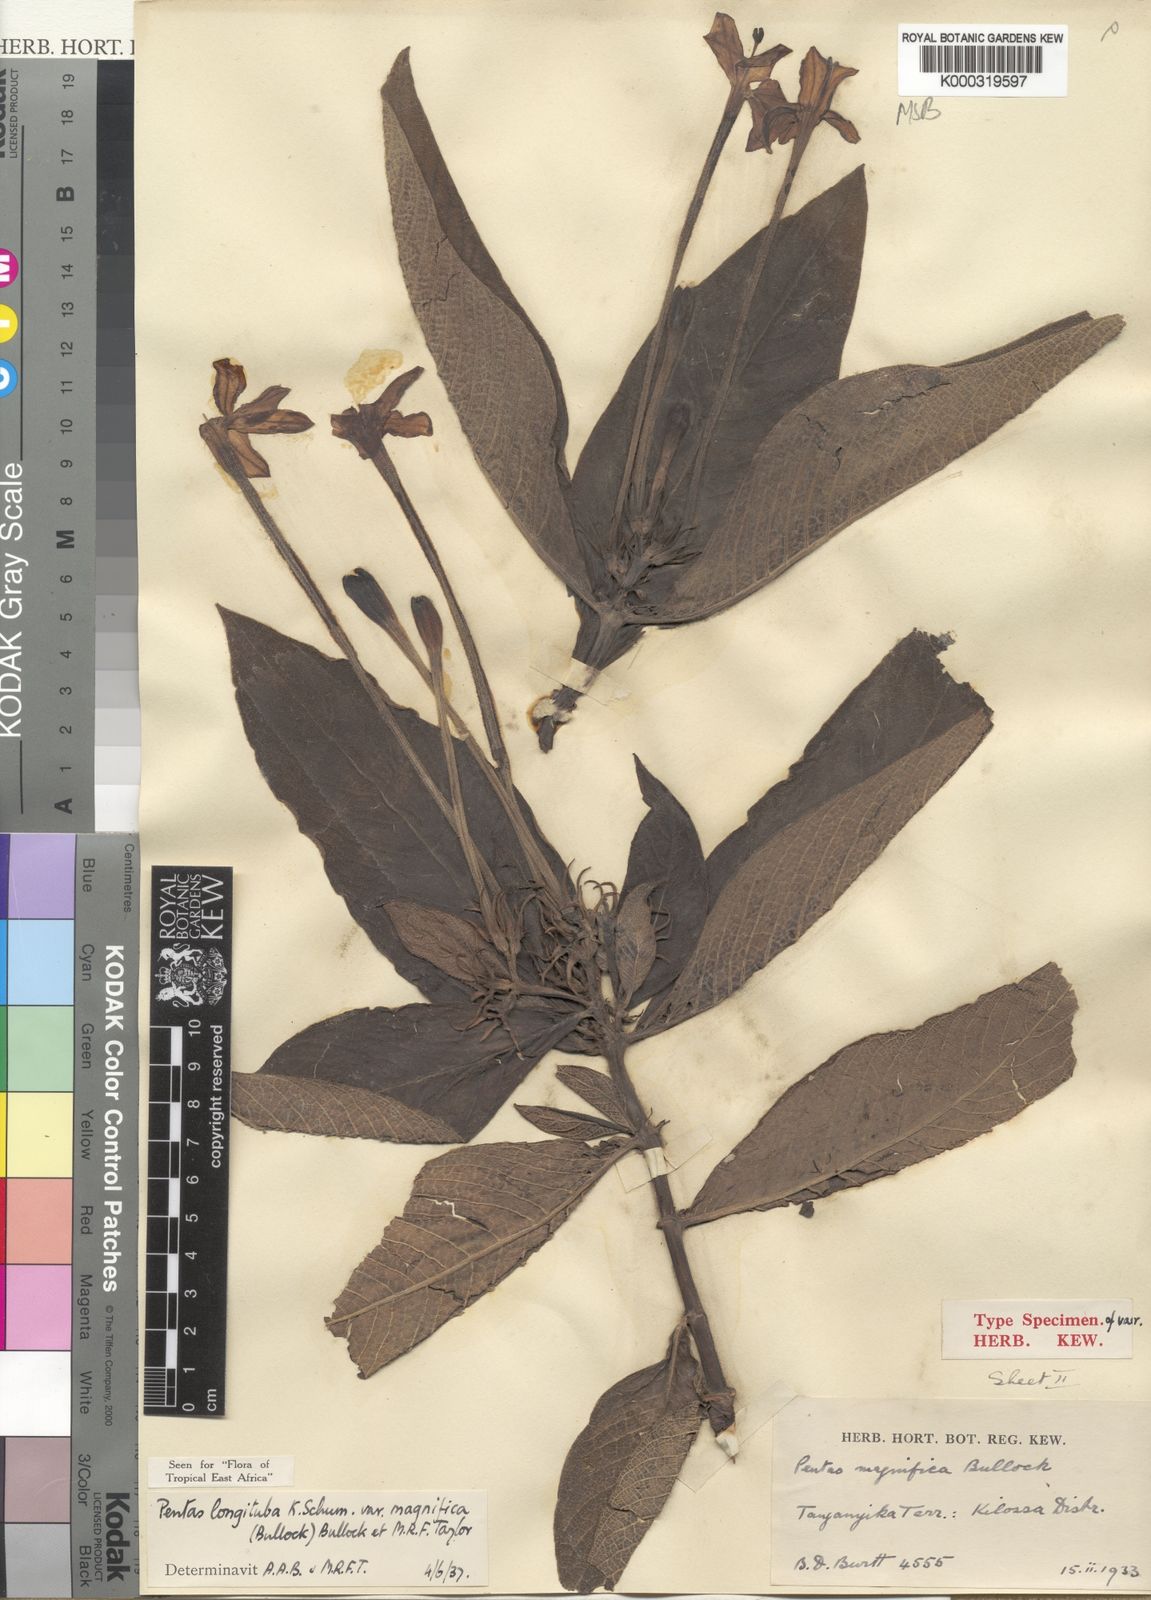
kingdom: Plantae
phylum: Tracheophyta
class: Magnoliopsida
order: Gentianales
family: Rubiaceae
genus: Pentas
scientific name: Pentas
